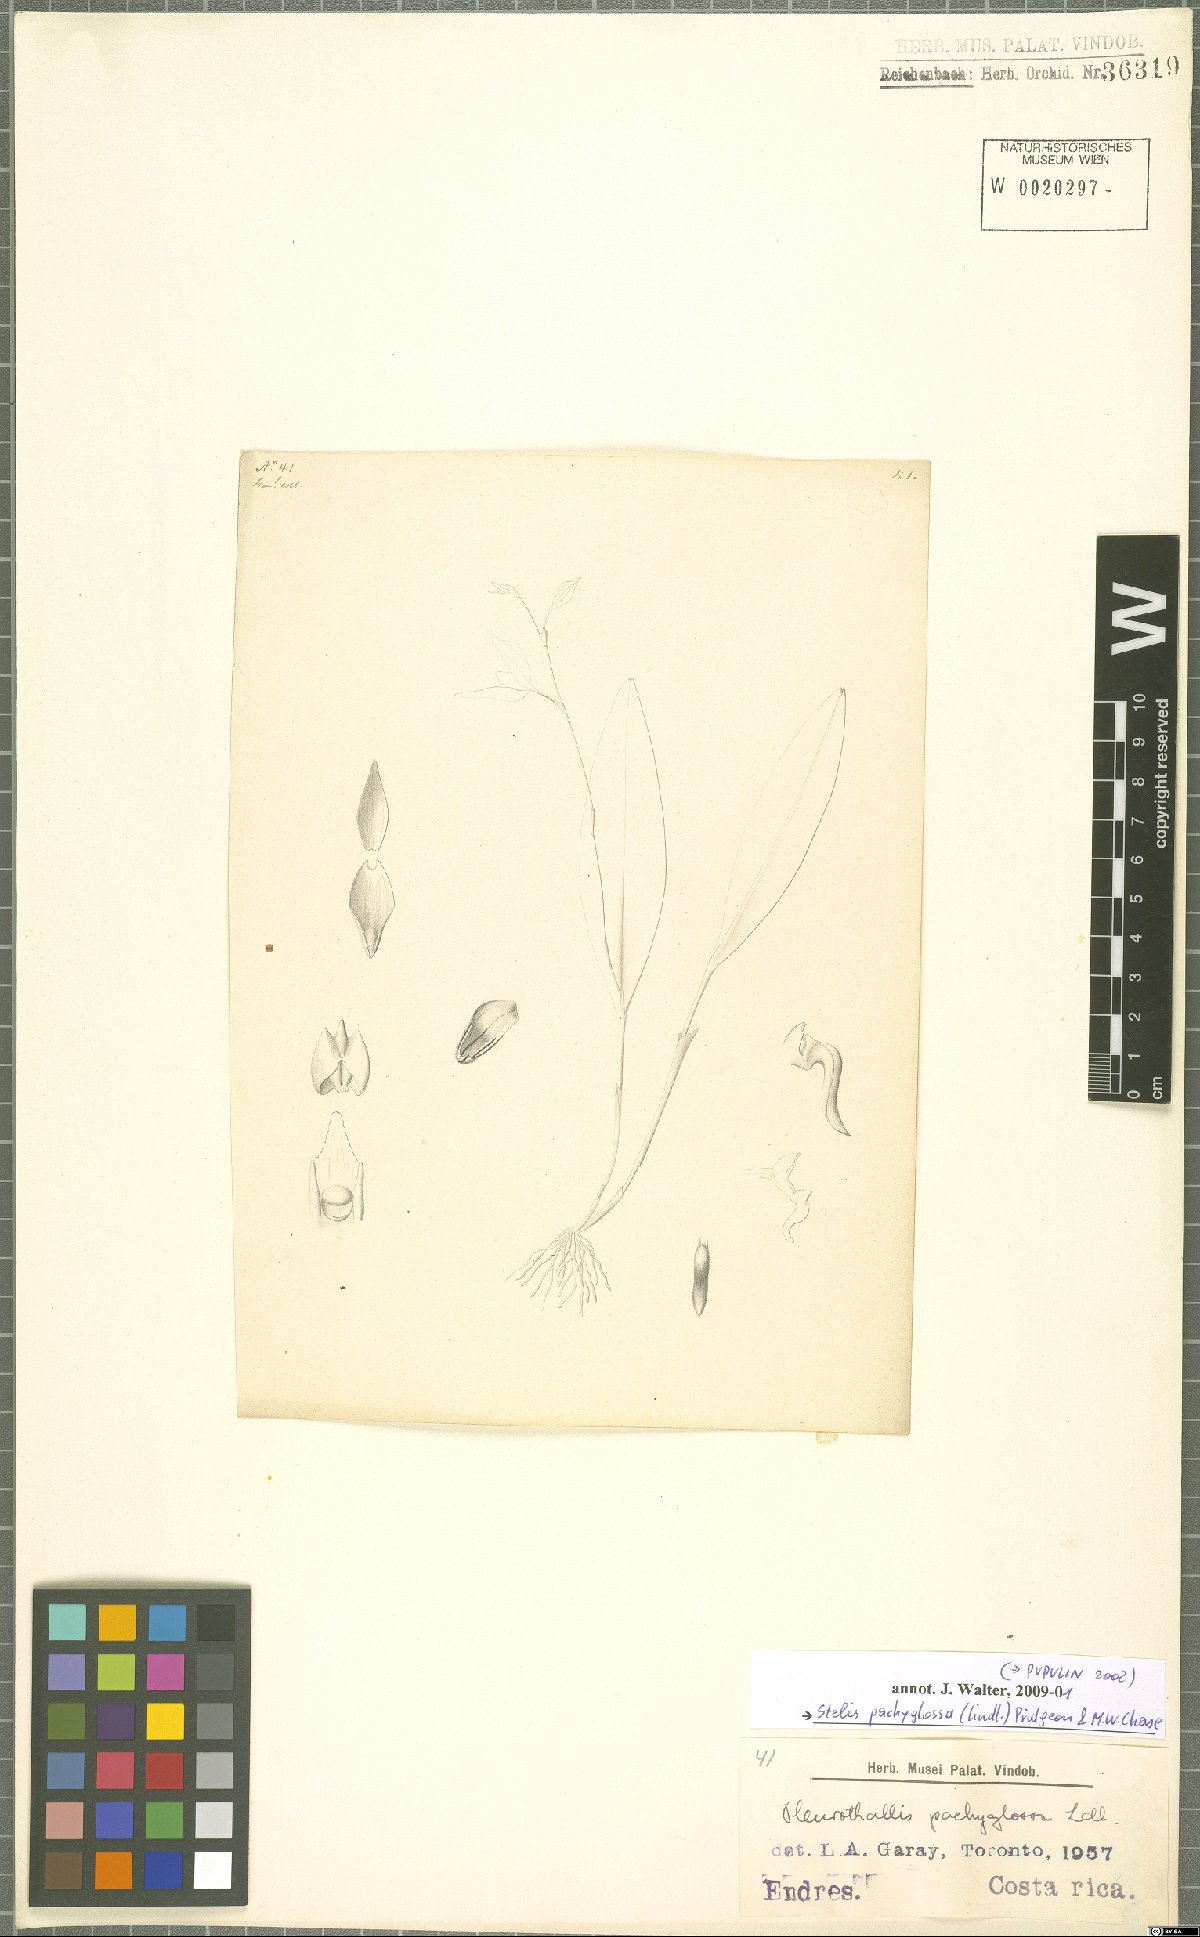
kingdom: Plantae
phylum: Tracheophyta
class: Liliopsida
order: Asparagales
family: Orchidaceae
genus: Stelis
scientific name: Stelis pachyglossa
